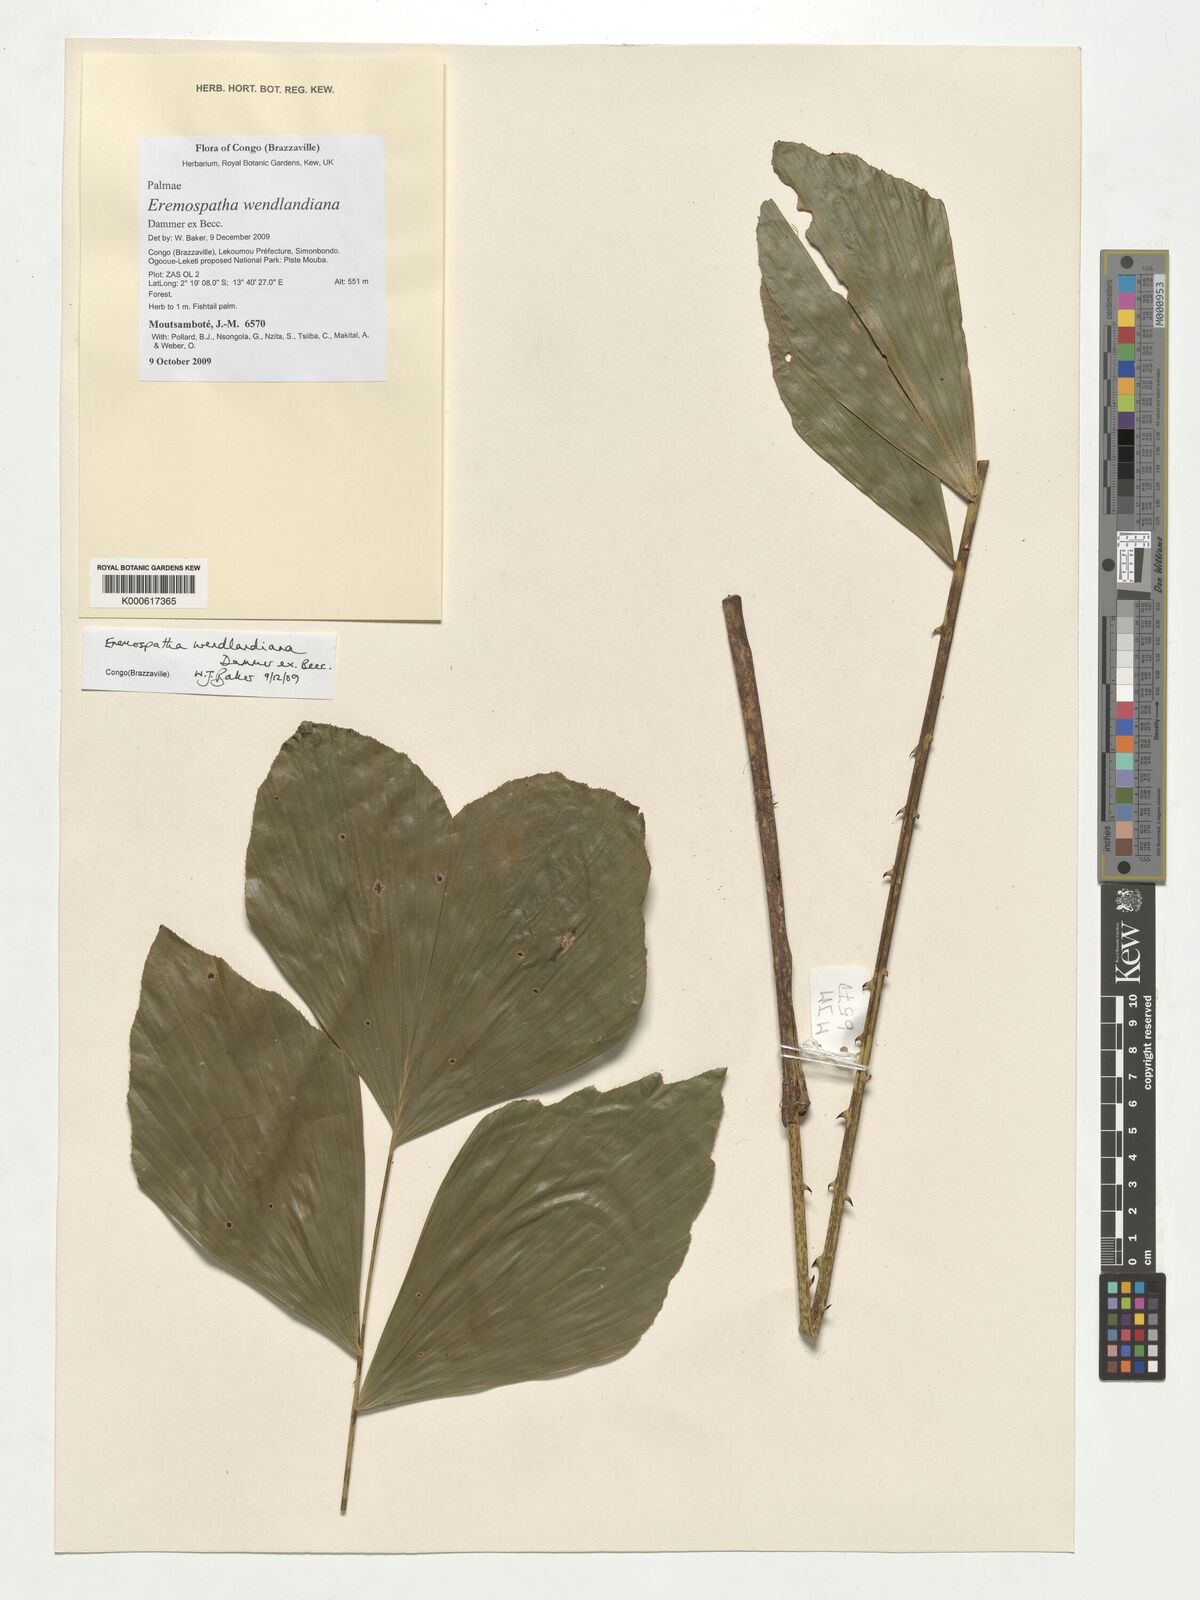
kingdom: Plantae
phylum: Tracheophyta
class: Liliopsida
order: Arecales
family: Arecaceae
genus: Eremospatha
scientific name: Eremospatha wendlandiana
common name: Rattan
